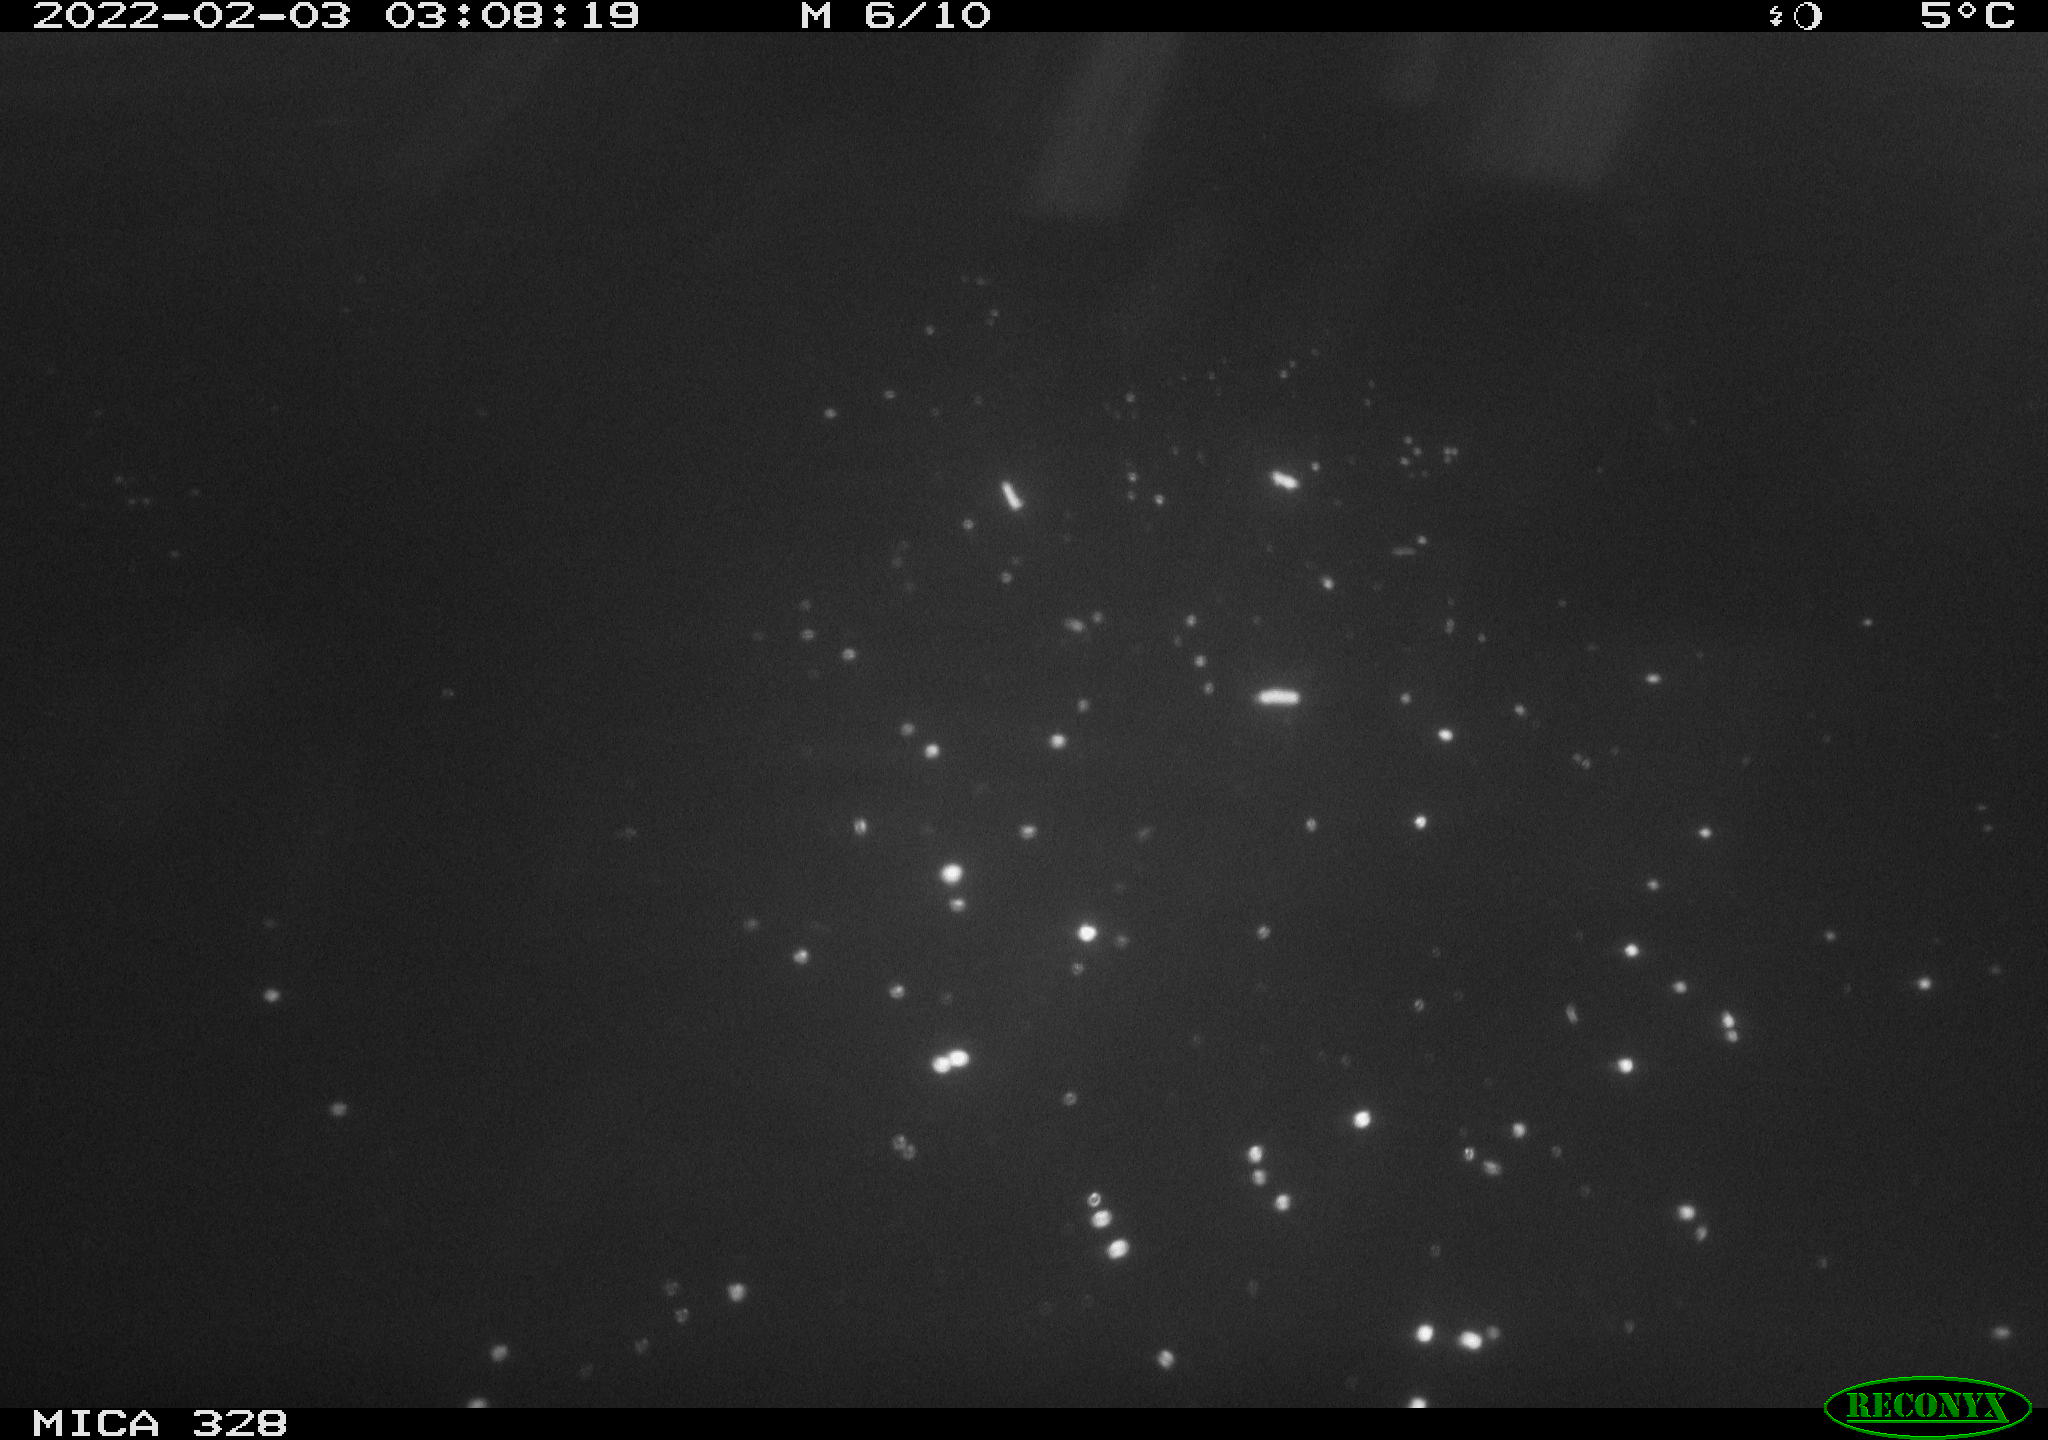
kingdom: Animalia
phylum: Chordata
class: Mammalia
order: Rodentia
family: Cricetidae
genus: Ondatra
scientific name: Ondatra zibethicus
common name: Muskrat
